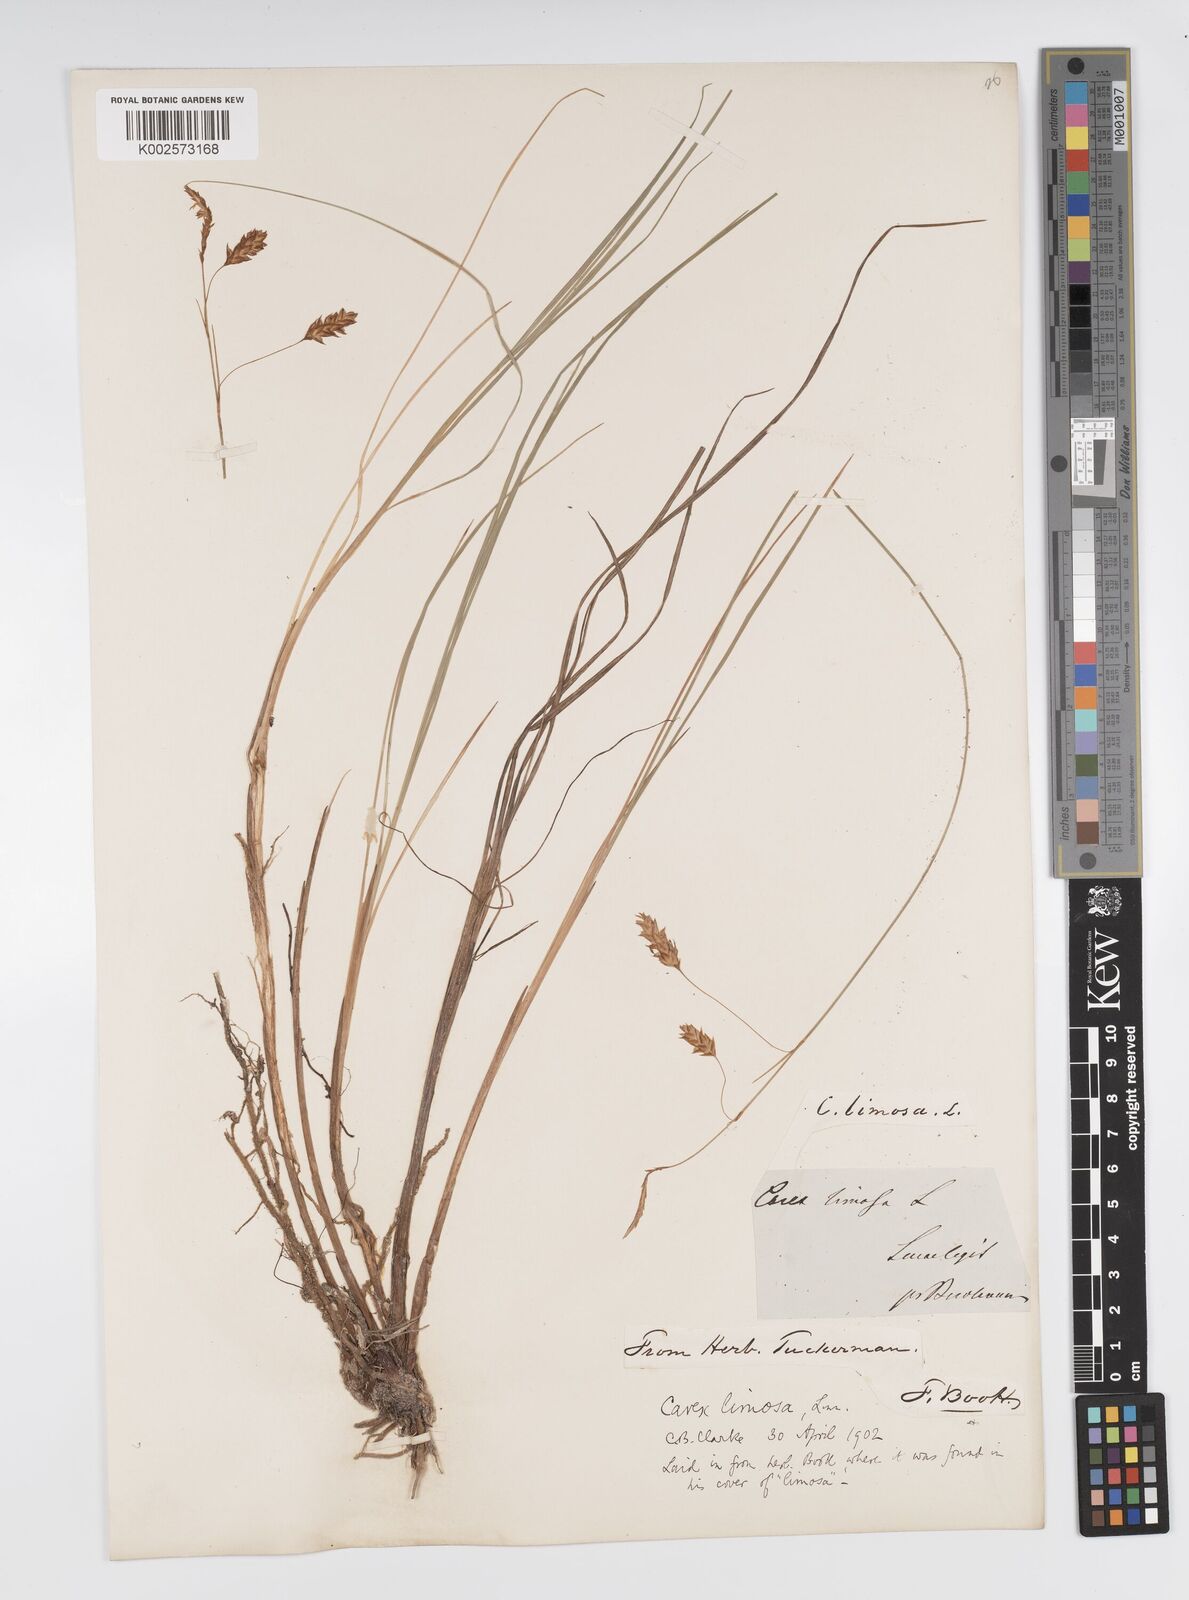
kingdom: Plantae
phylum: Tracheophyta
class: Liliopsida
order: Poales
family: Cyperaceae
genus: Carex
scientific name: Carex limosa
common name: Bog sedge
